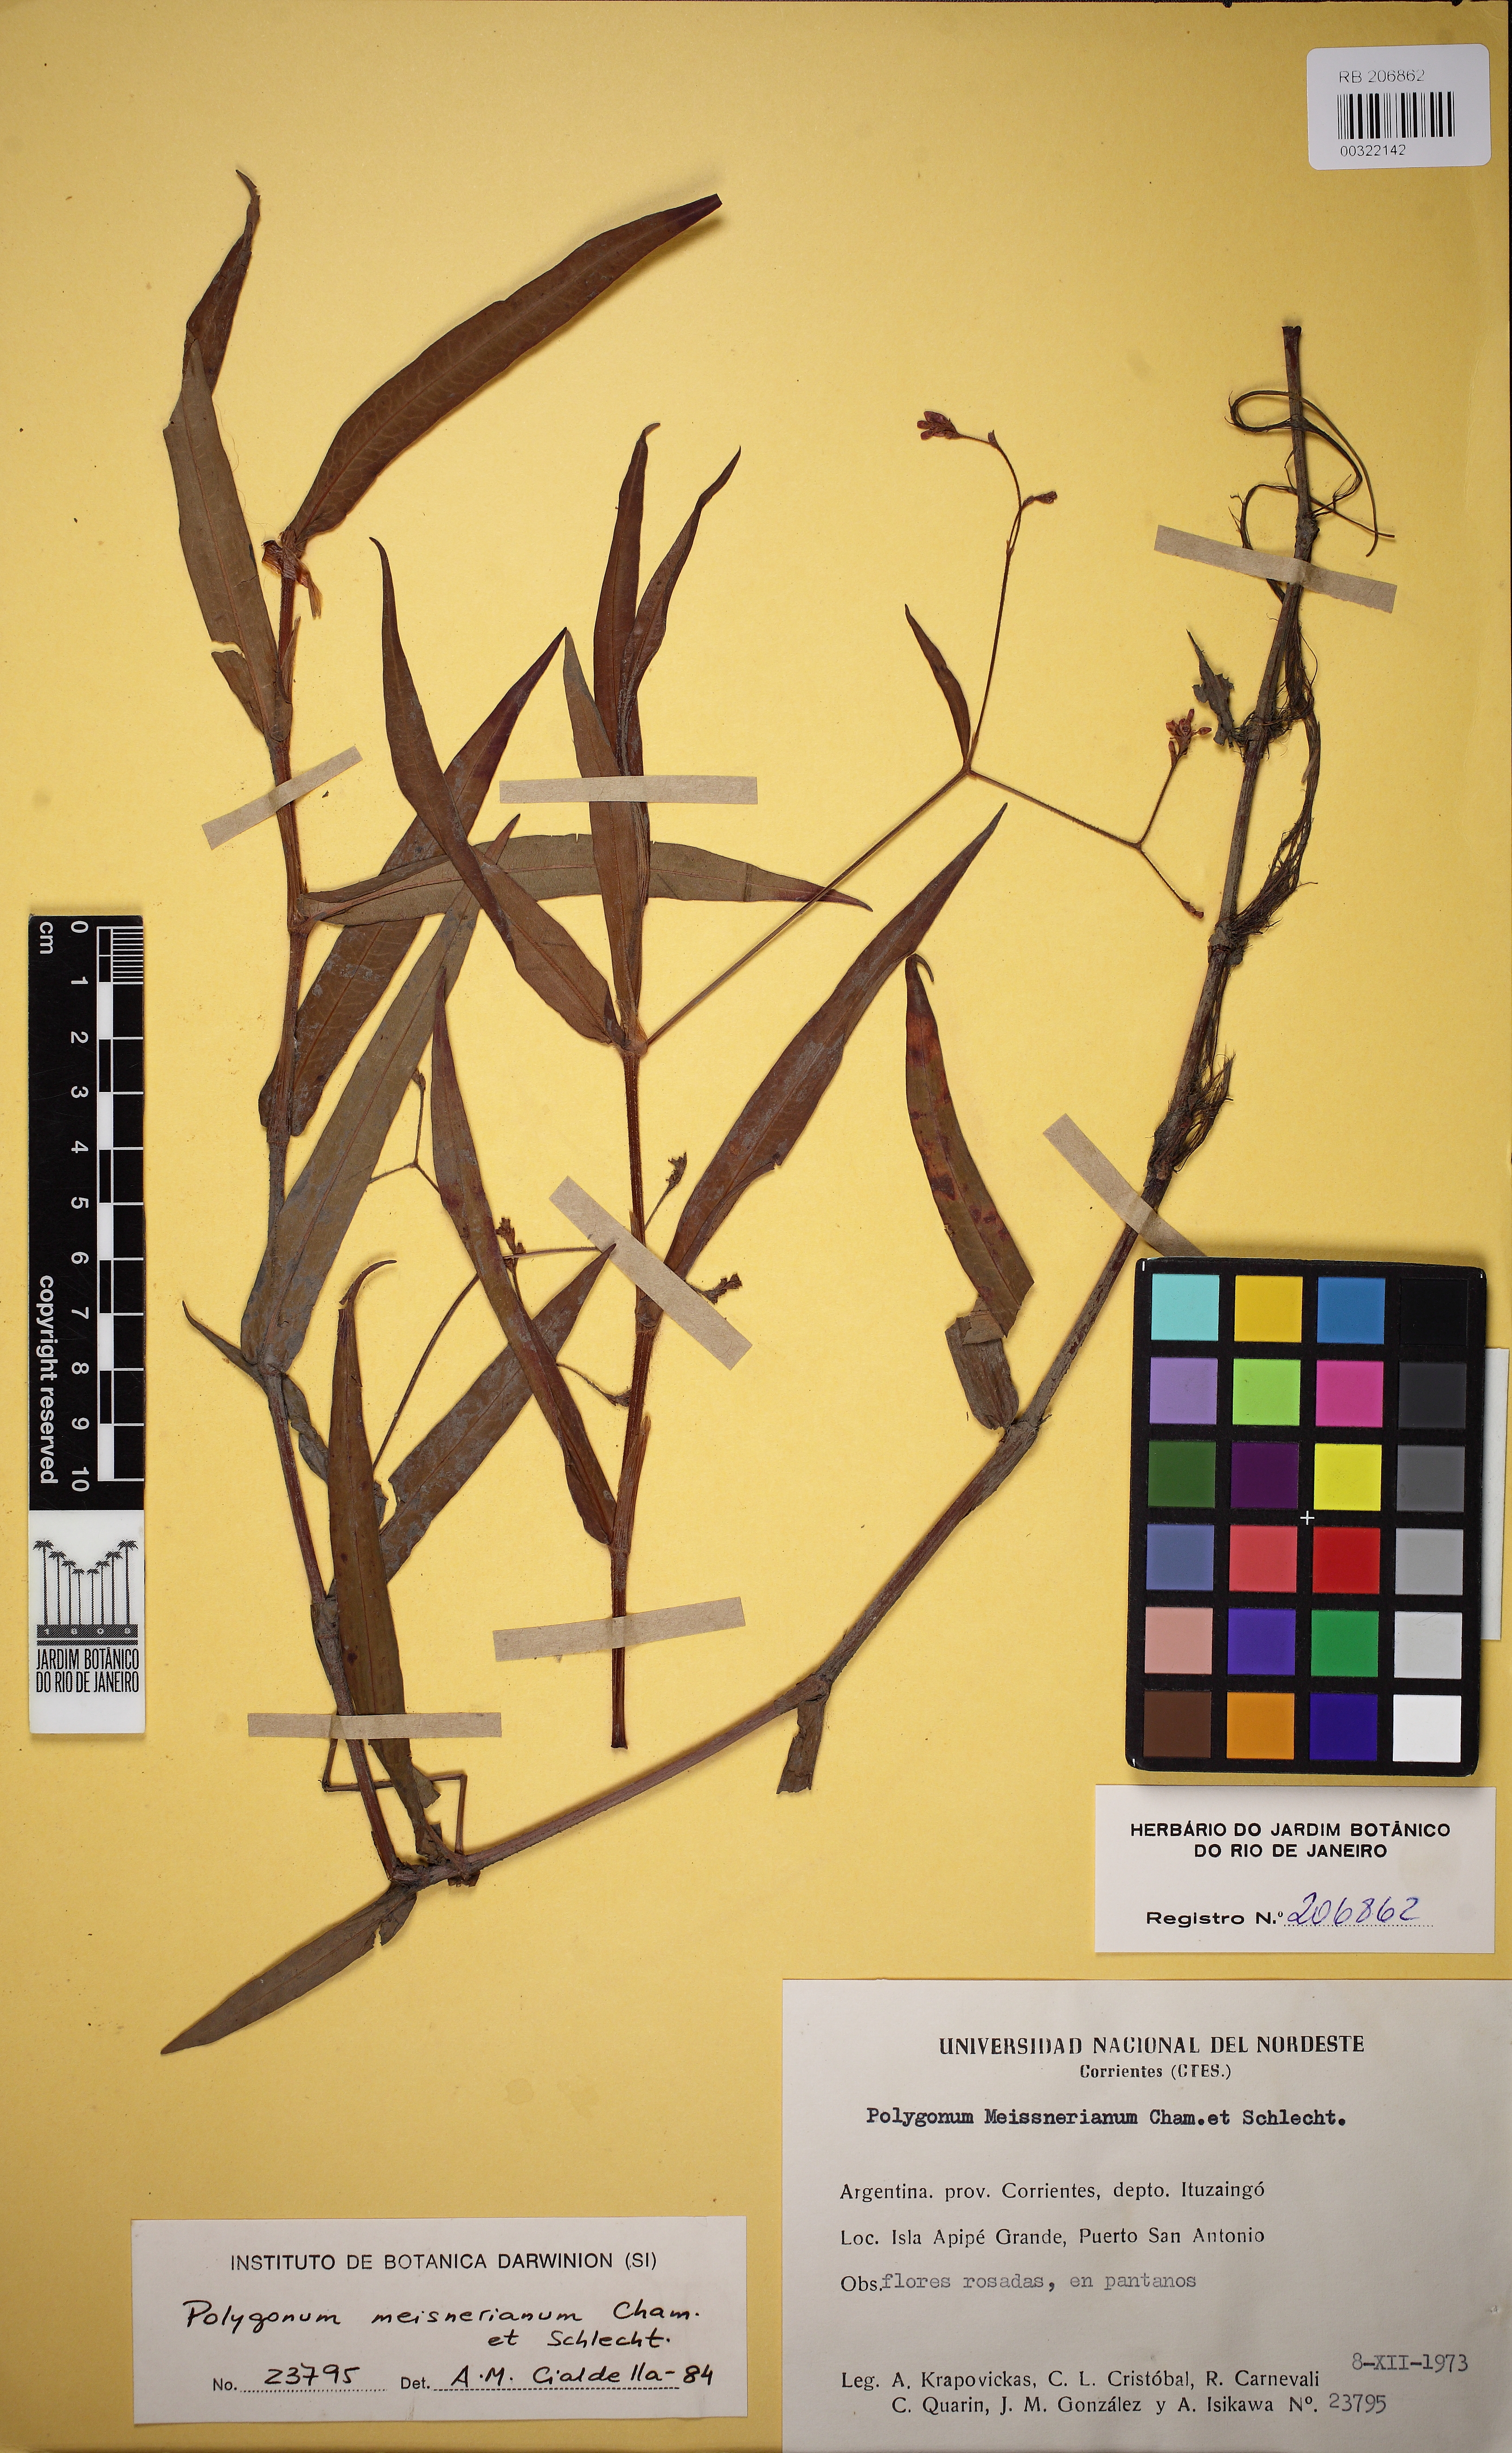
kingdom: Plantae
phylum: Tracheophyta
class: Magnoliopsida
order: Caryophyllales
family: Polygonaceae
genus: Persicaria
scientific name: Persicaria meisneriana
